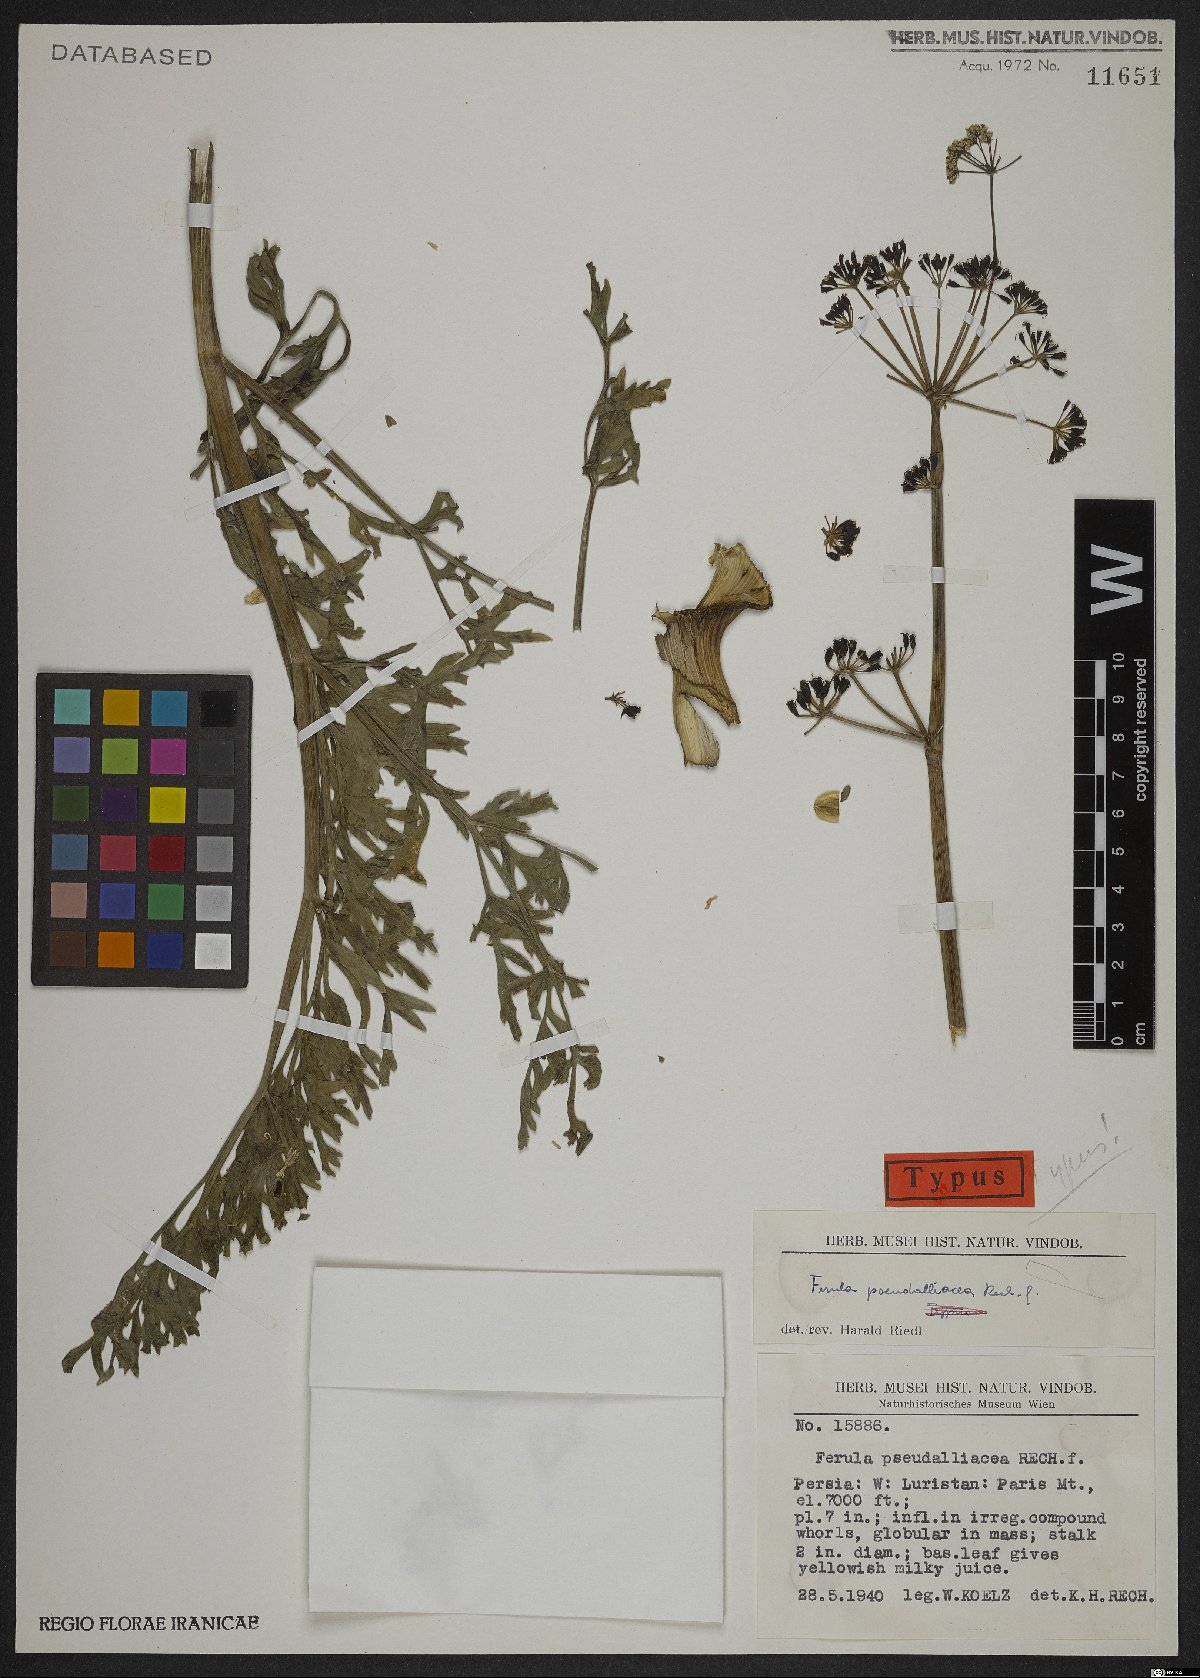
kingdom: Plantae
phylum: Tracheophyta
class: Magnoliopsida
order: Apiales
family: Apiaceae
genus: Ferula
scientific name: Ferula pseudalliacea
